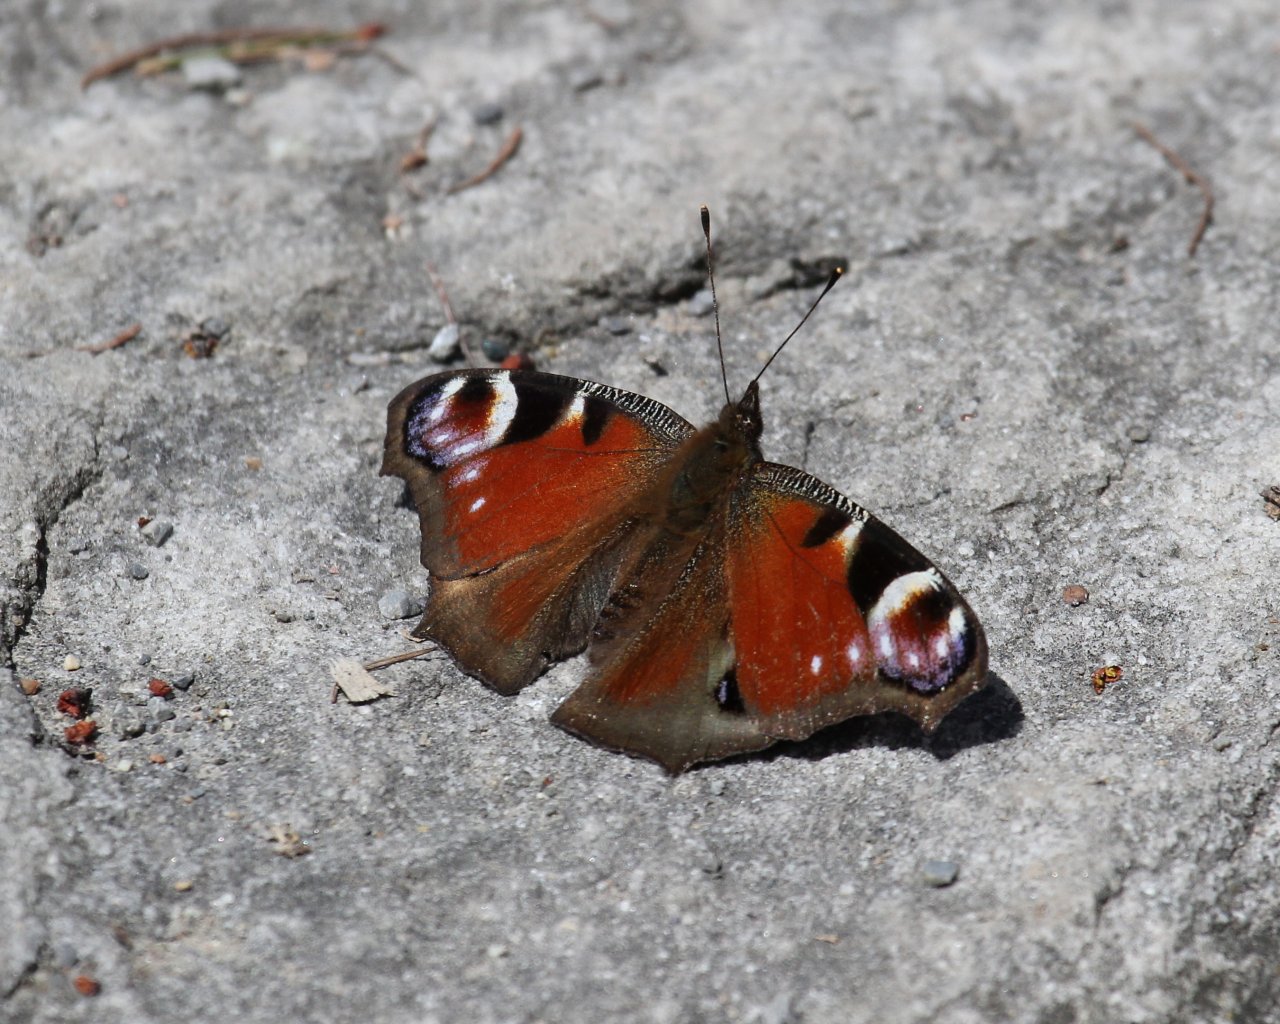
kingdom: Animalia
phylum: Arthropoda
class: Insecta
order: Lepidoptera
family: Nymphalidae
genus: Aglais
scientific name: Aglais io
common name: European Peacock
